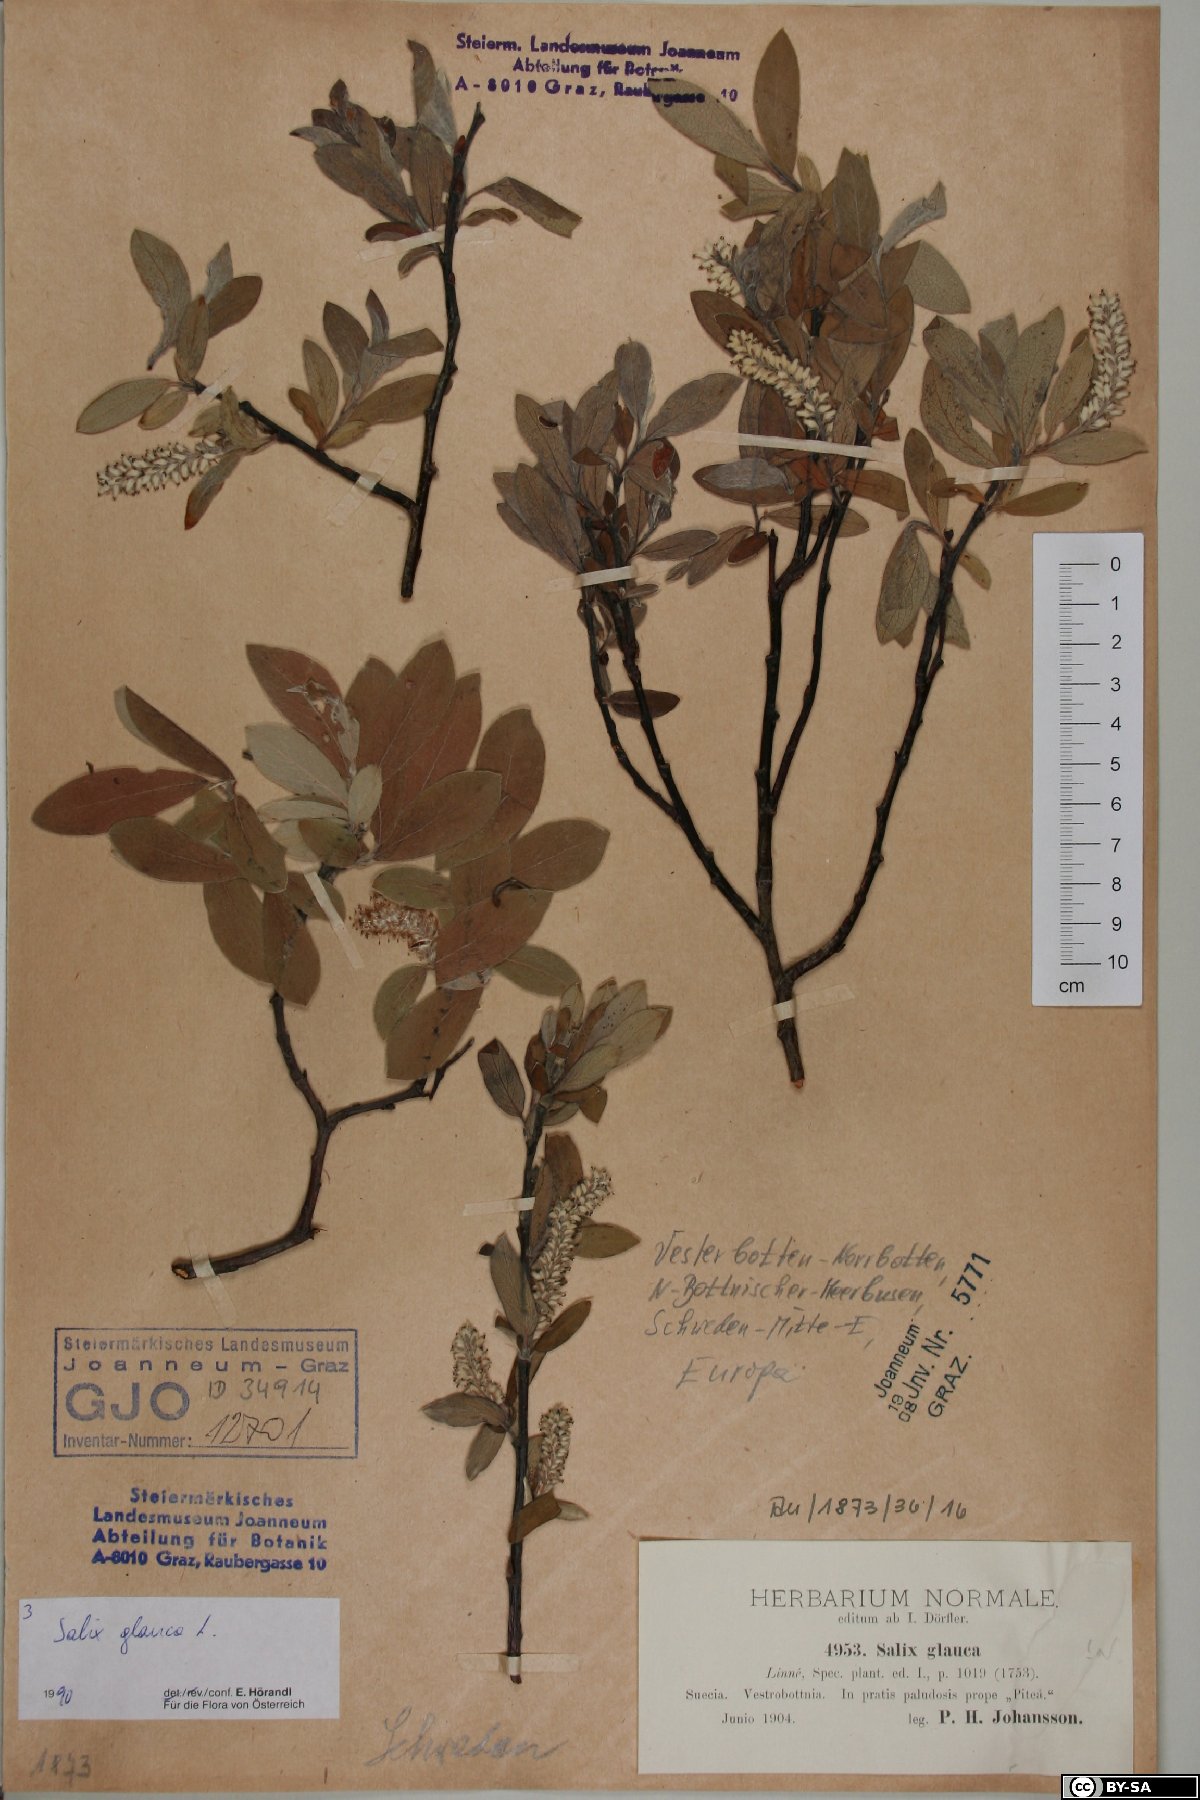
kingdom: Plantae
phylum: Tracheophyta
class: Magnoliopsida
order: Malpighiales
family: Salicaceae
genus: Salix
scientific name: Salix glauca
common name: Glaucous willow
